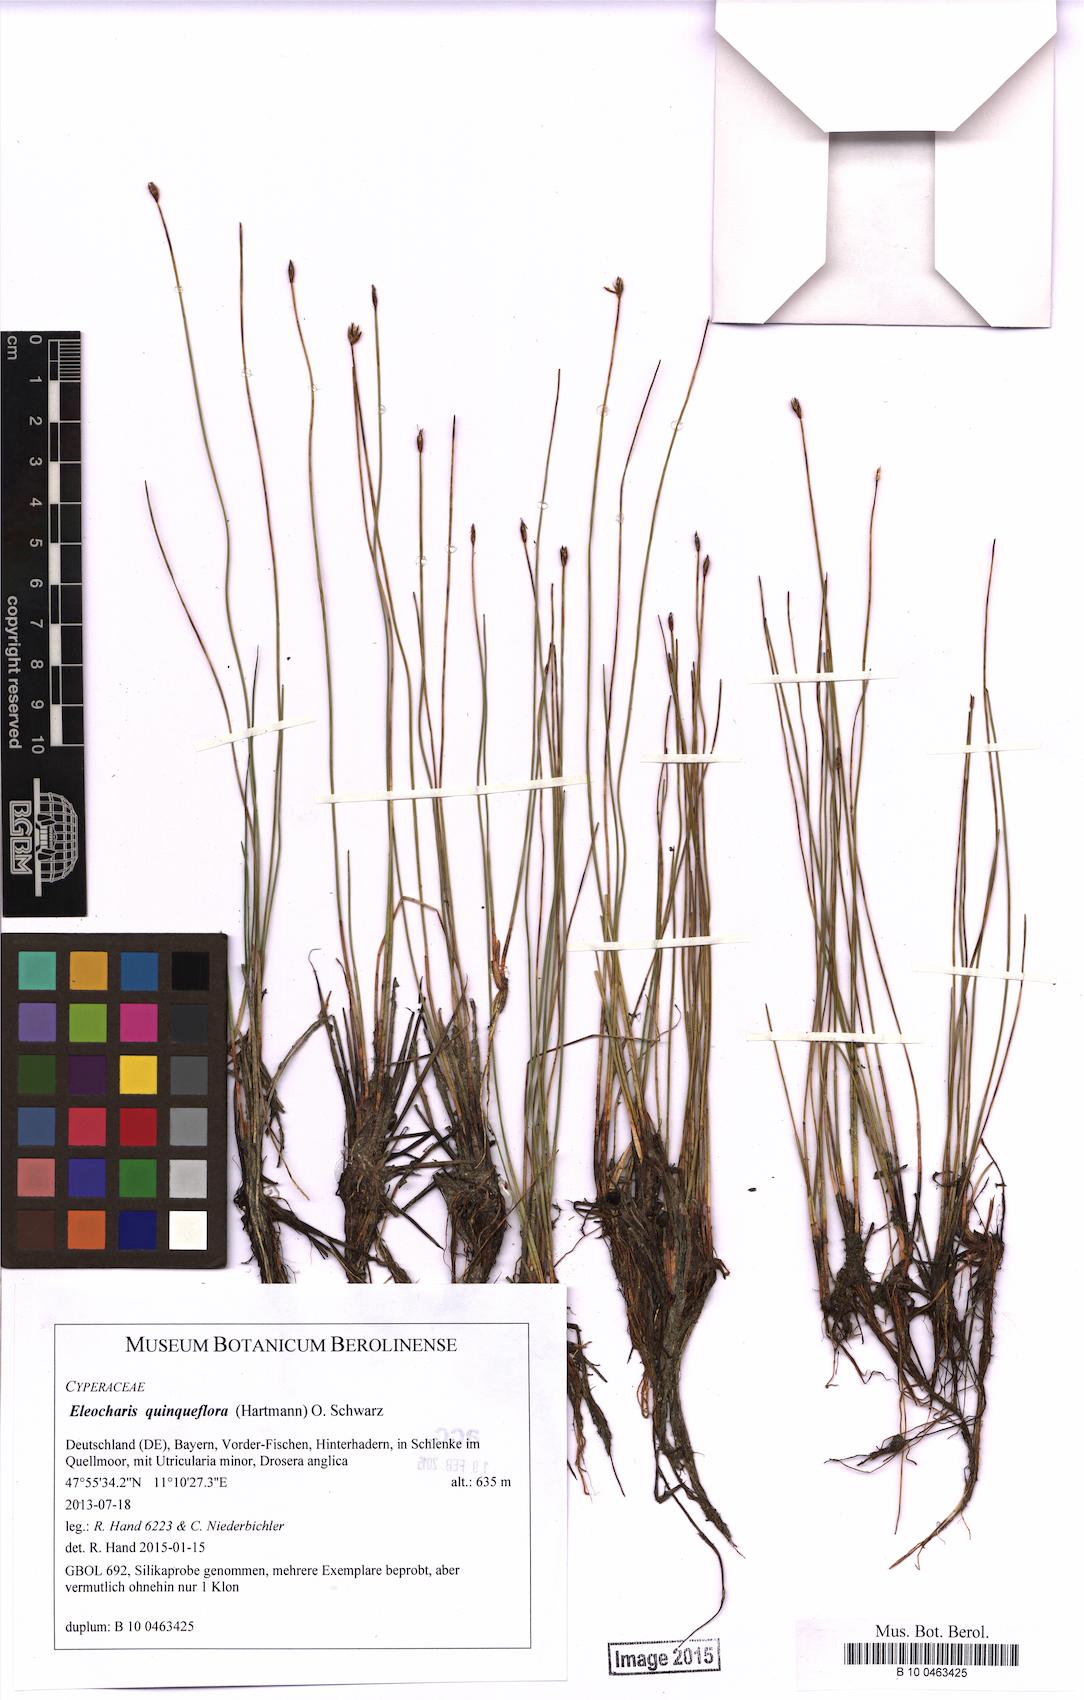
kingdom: Plantae
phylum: Tracheophyta
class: Liliopsida
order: Poales
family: Cyperaceae
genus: Eleocharis
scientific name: Eleocharis quinqueflora
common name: Few-flowered spike-rush
